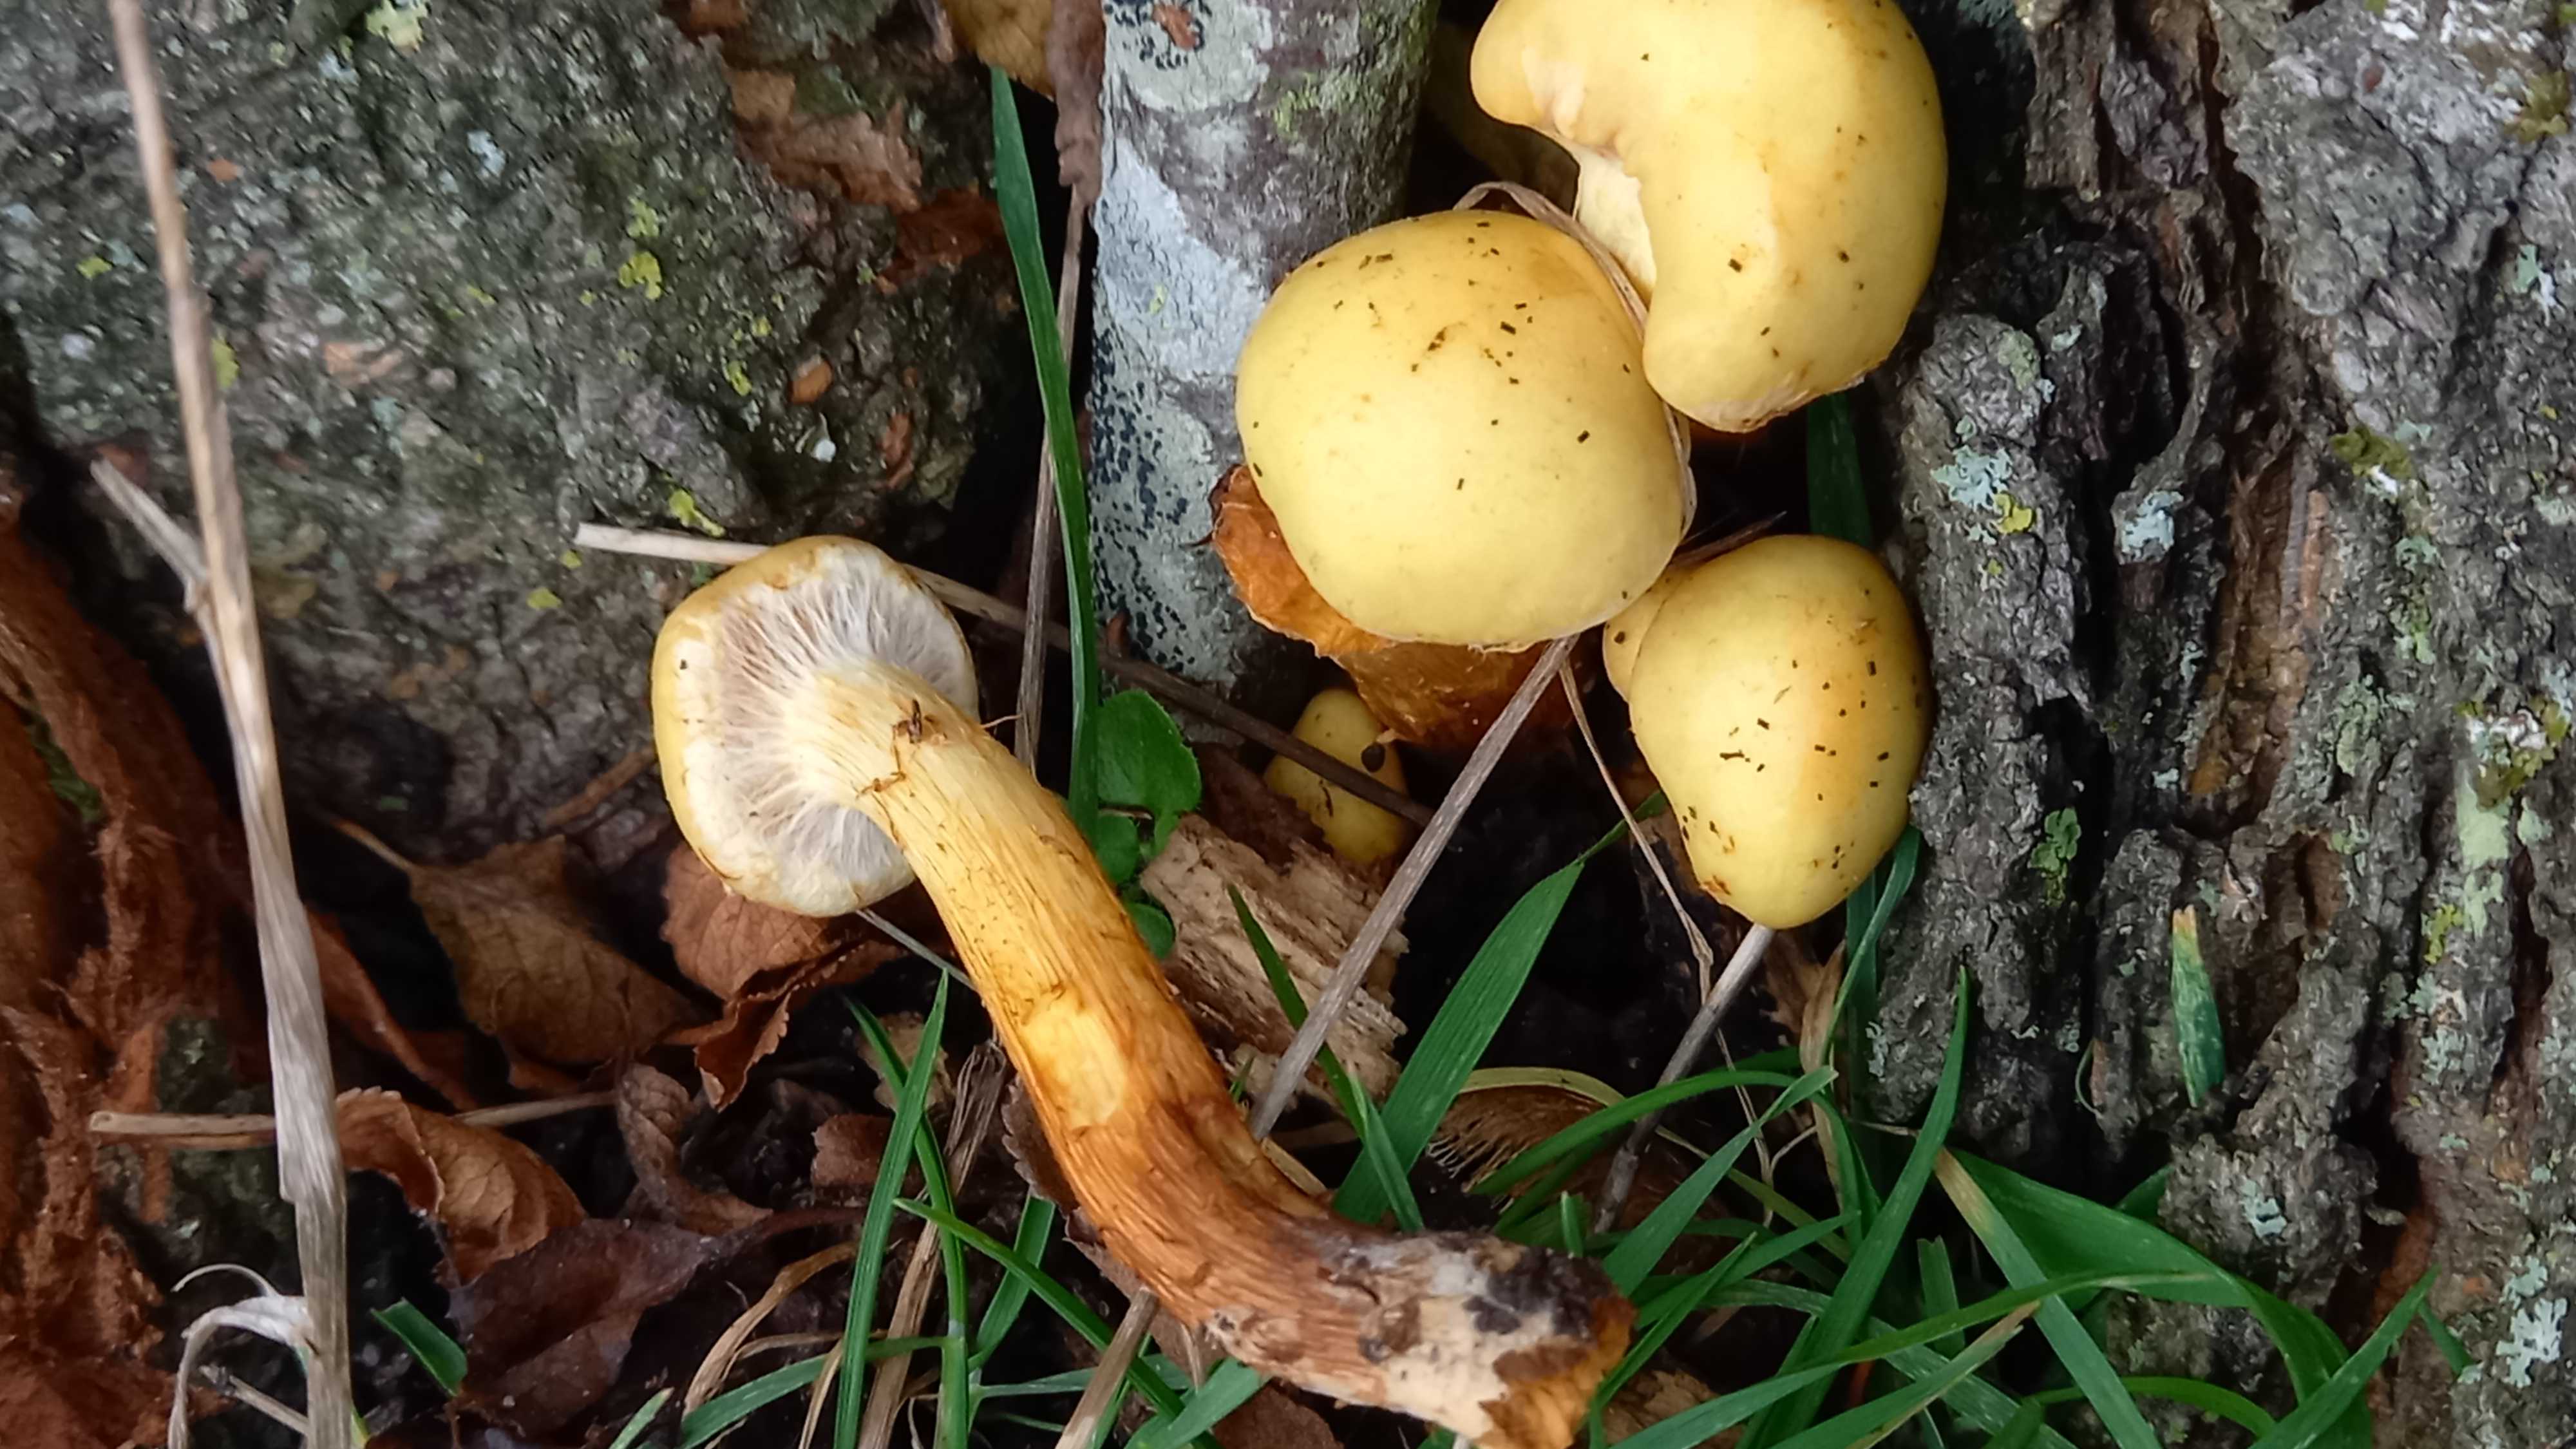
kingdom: Fungi
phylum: Basidiomycota
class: Agaricomycetes
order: Agaricales
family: Hymenogastraceae
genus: Flammula
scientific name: Flammula alnicola
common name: elle-skælhat
